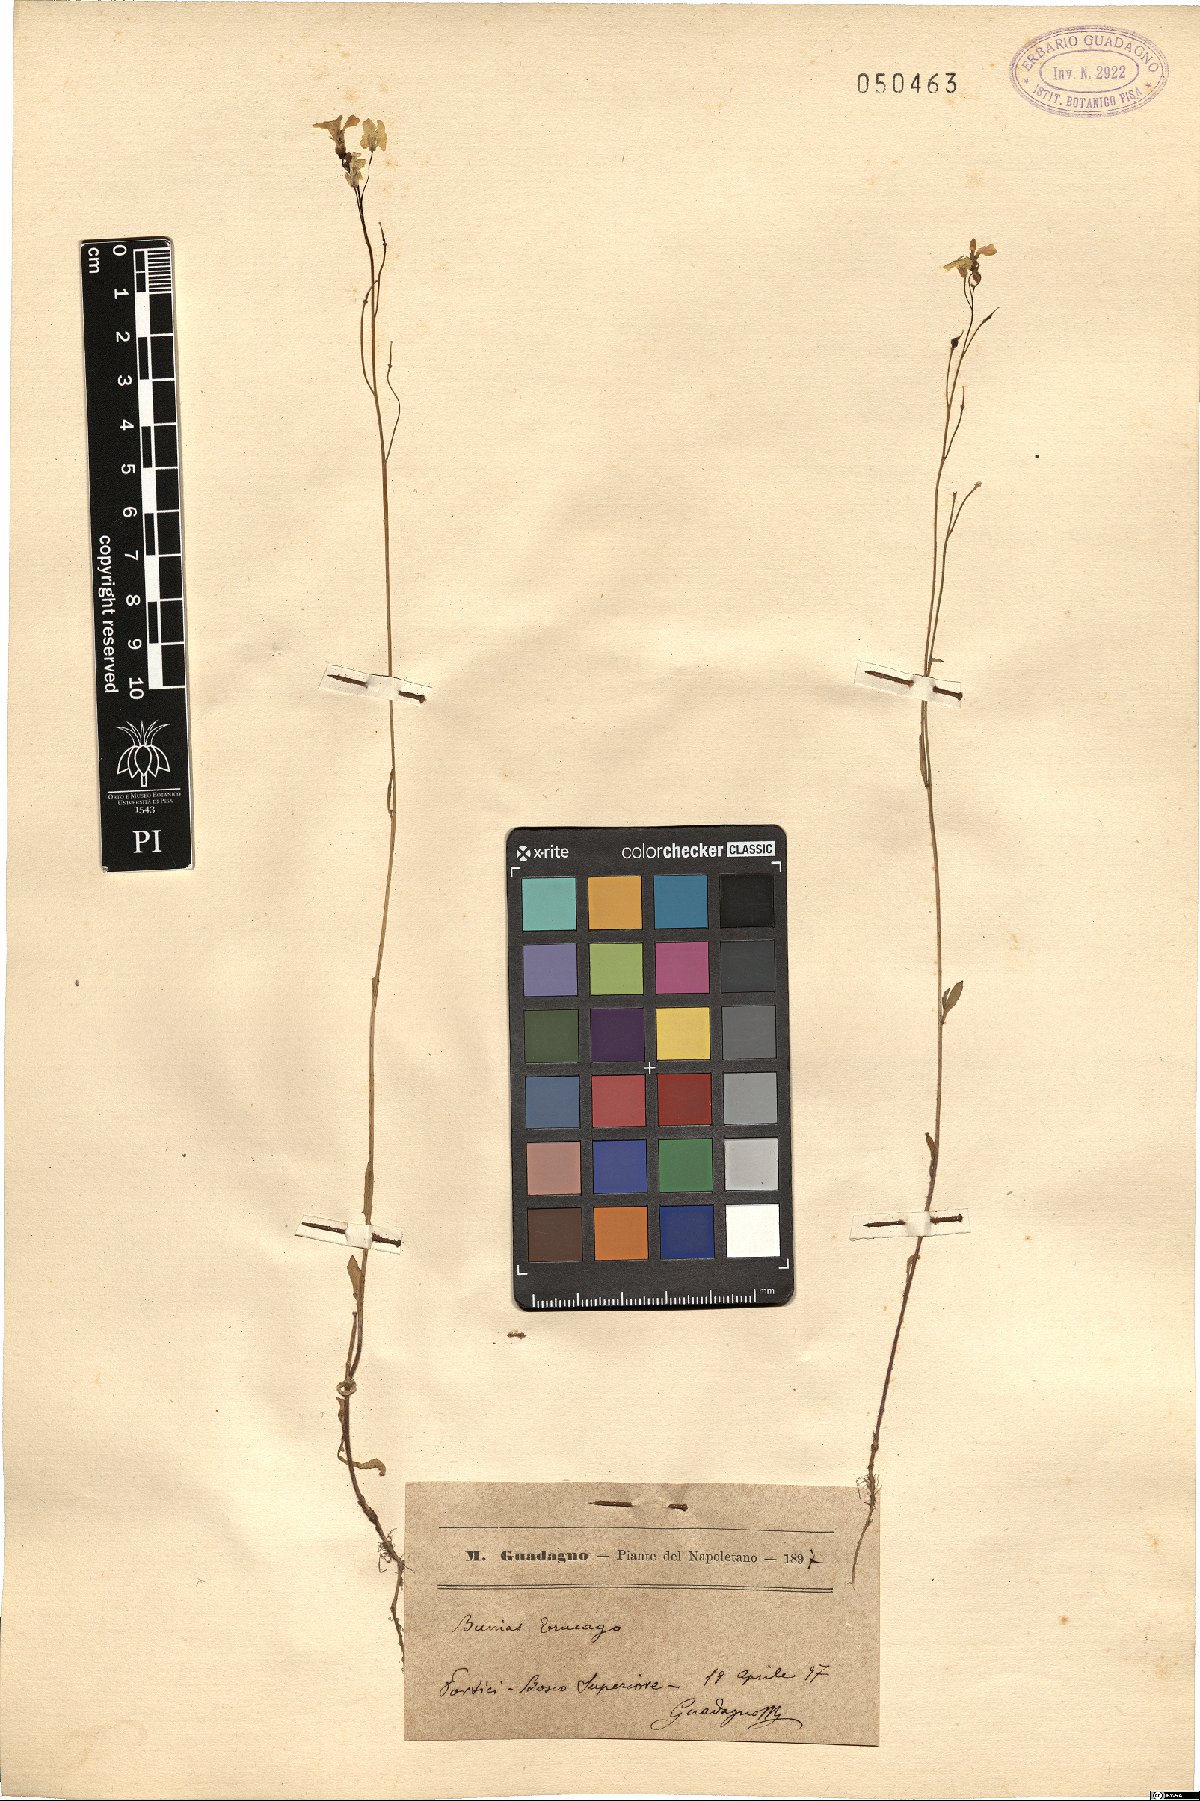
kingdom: Plantae
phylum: Tracheophyta
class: Magnoliopsida
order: Brassicales
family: Brassicaceae
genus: Bunias
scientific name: Bunias erucago
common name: Southern warty-cabbage
